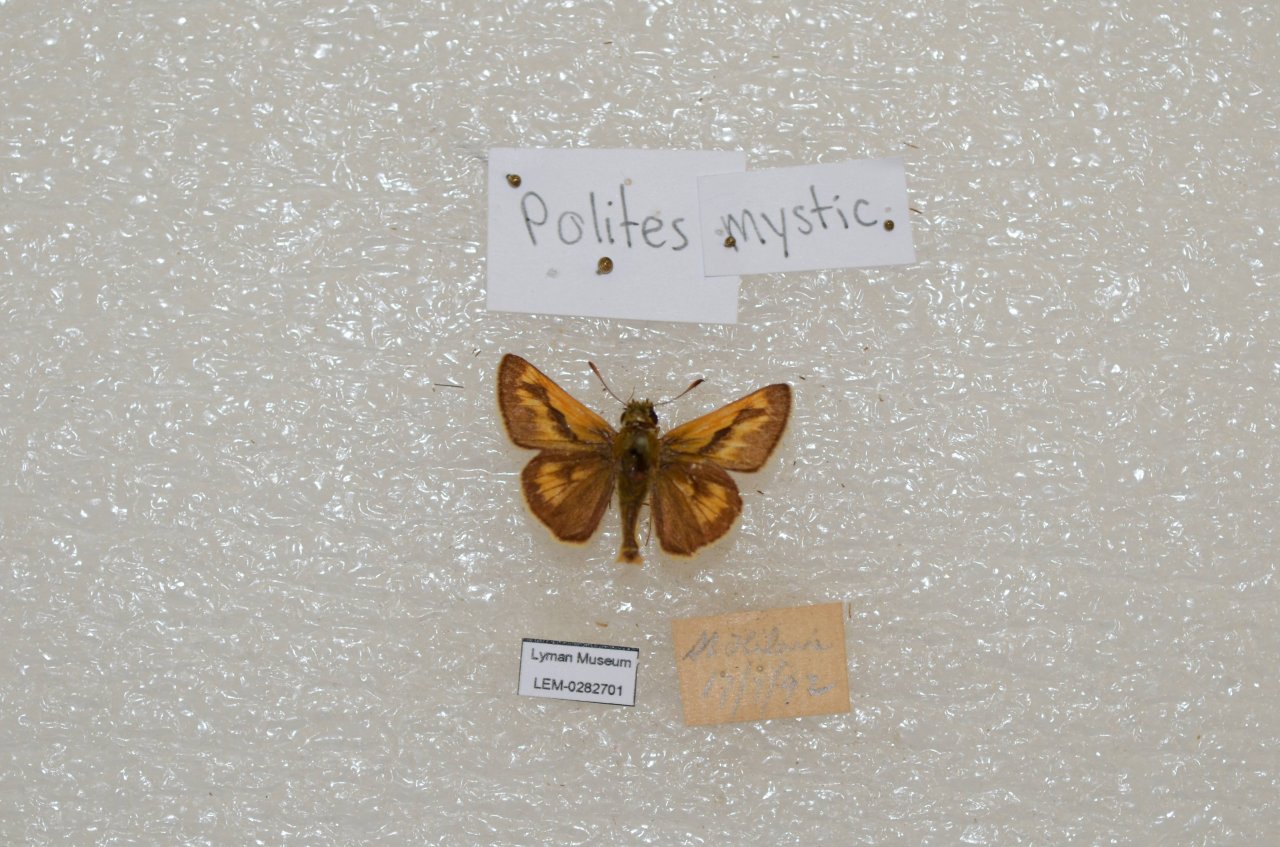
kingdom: Animalia
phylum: Arthropoda
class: Insecta
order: Lepidoptera
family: Hesperiidae
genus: Polites
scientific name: Polites
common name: Long Dash Skipper
